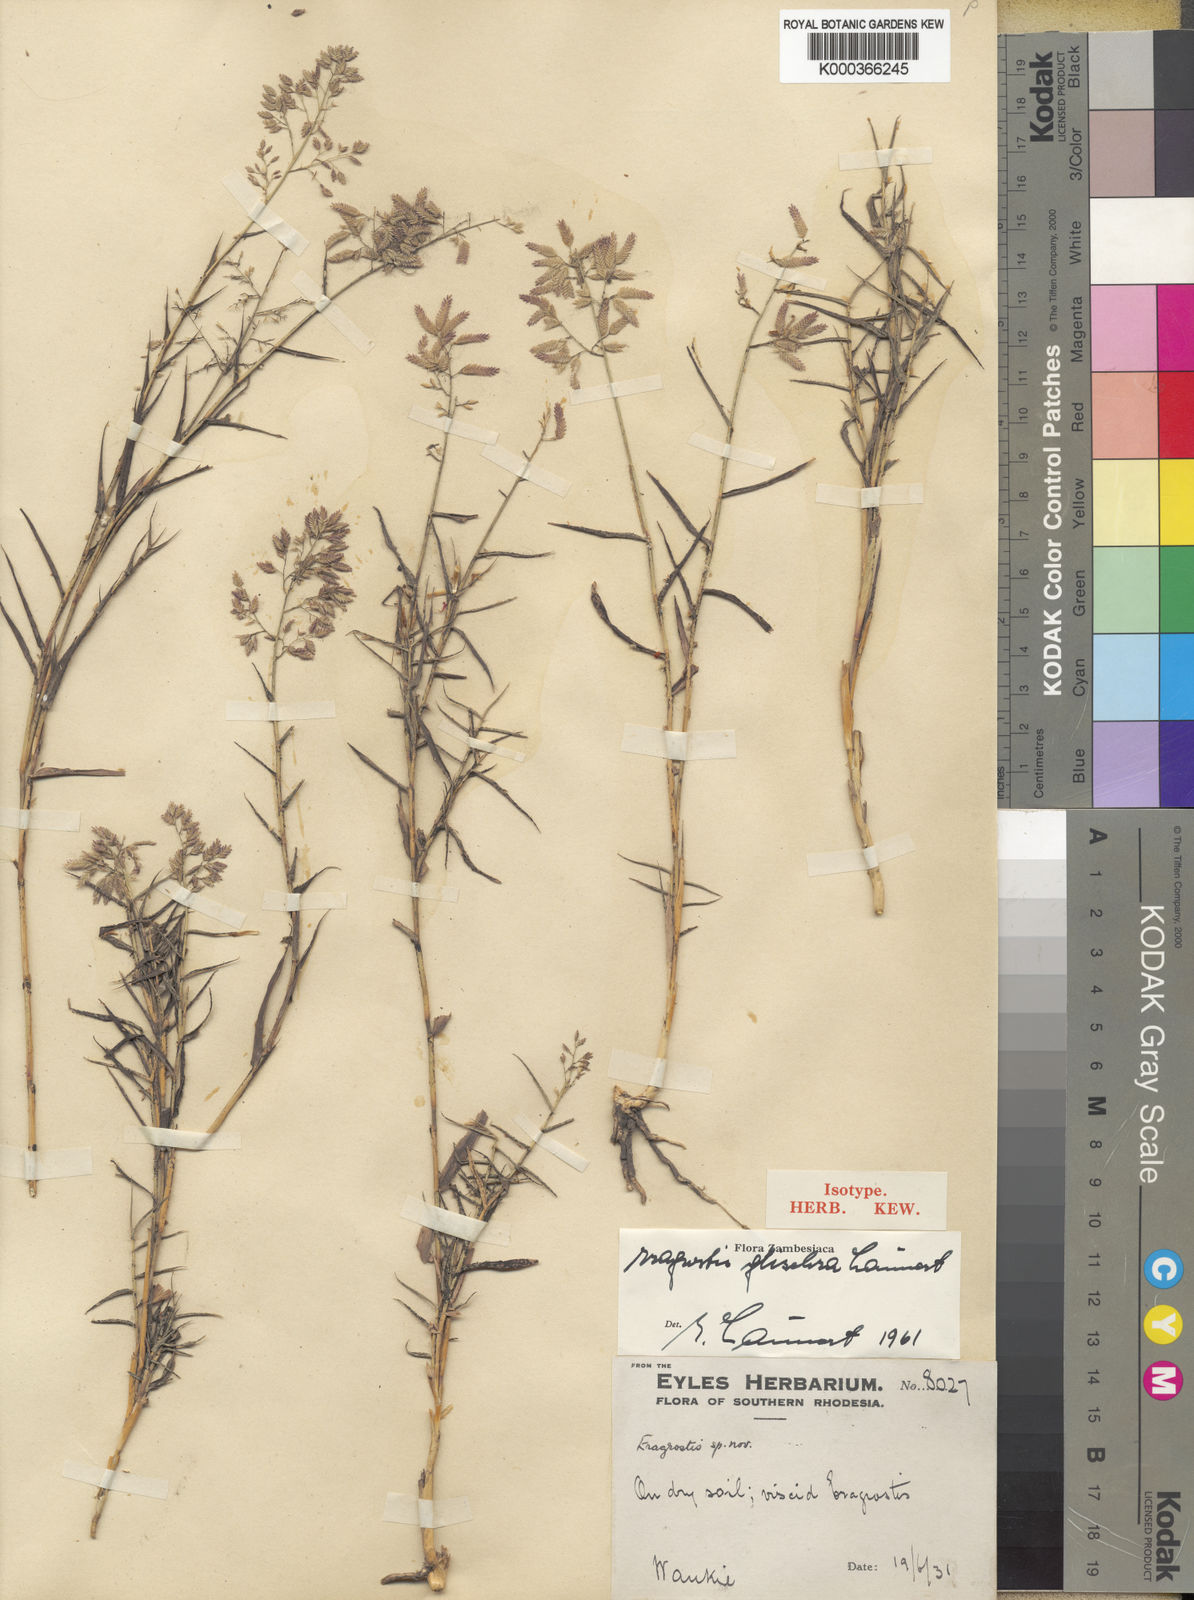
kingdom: Plantae
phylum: Tracheophyta
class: Liliopsida
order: Poales
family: Poaceae
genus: Eragrostis
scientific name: Eragrostis glischra
